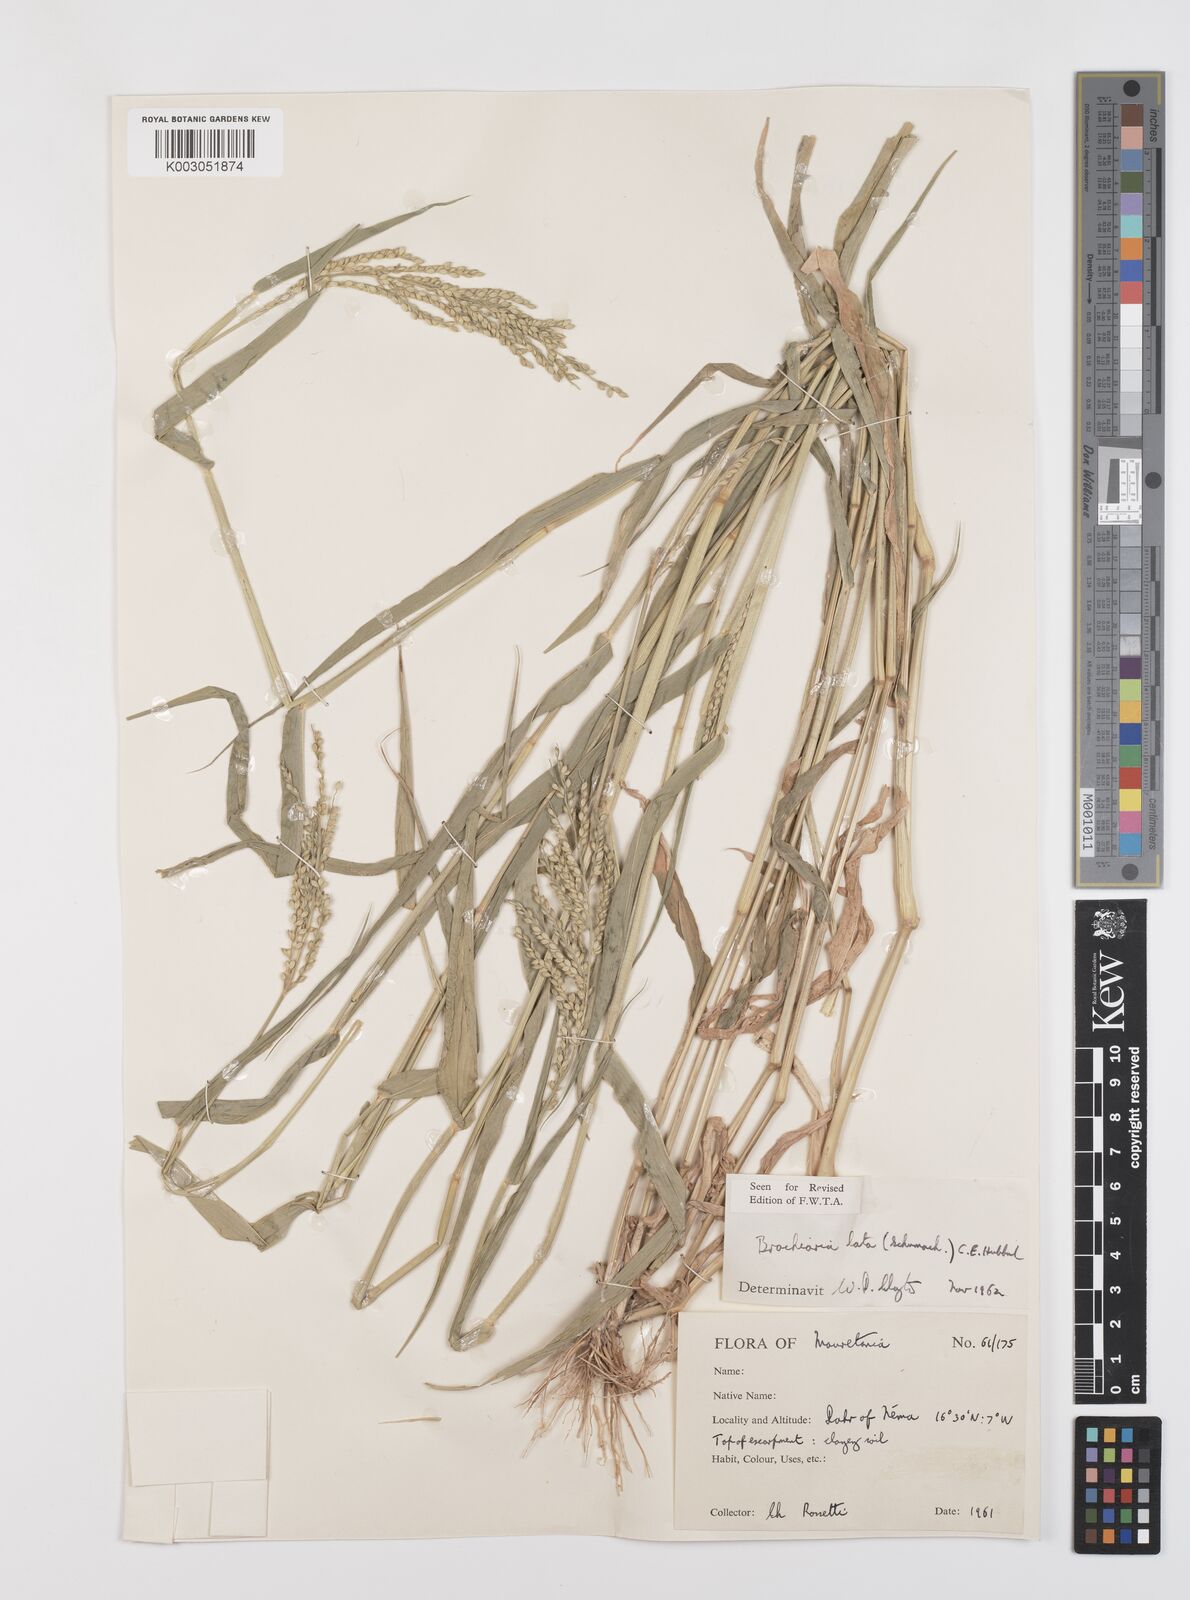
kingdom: Plantae
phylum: Tracheophyta
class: Liliopsida
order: Poales
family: Poaceae
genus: Urochloa
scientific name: Urochloa lata
